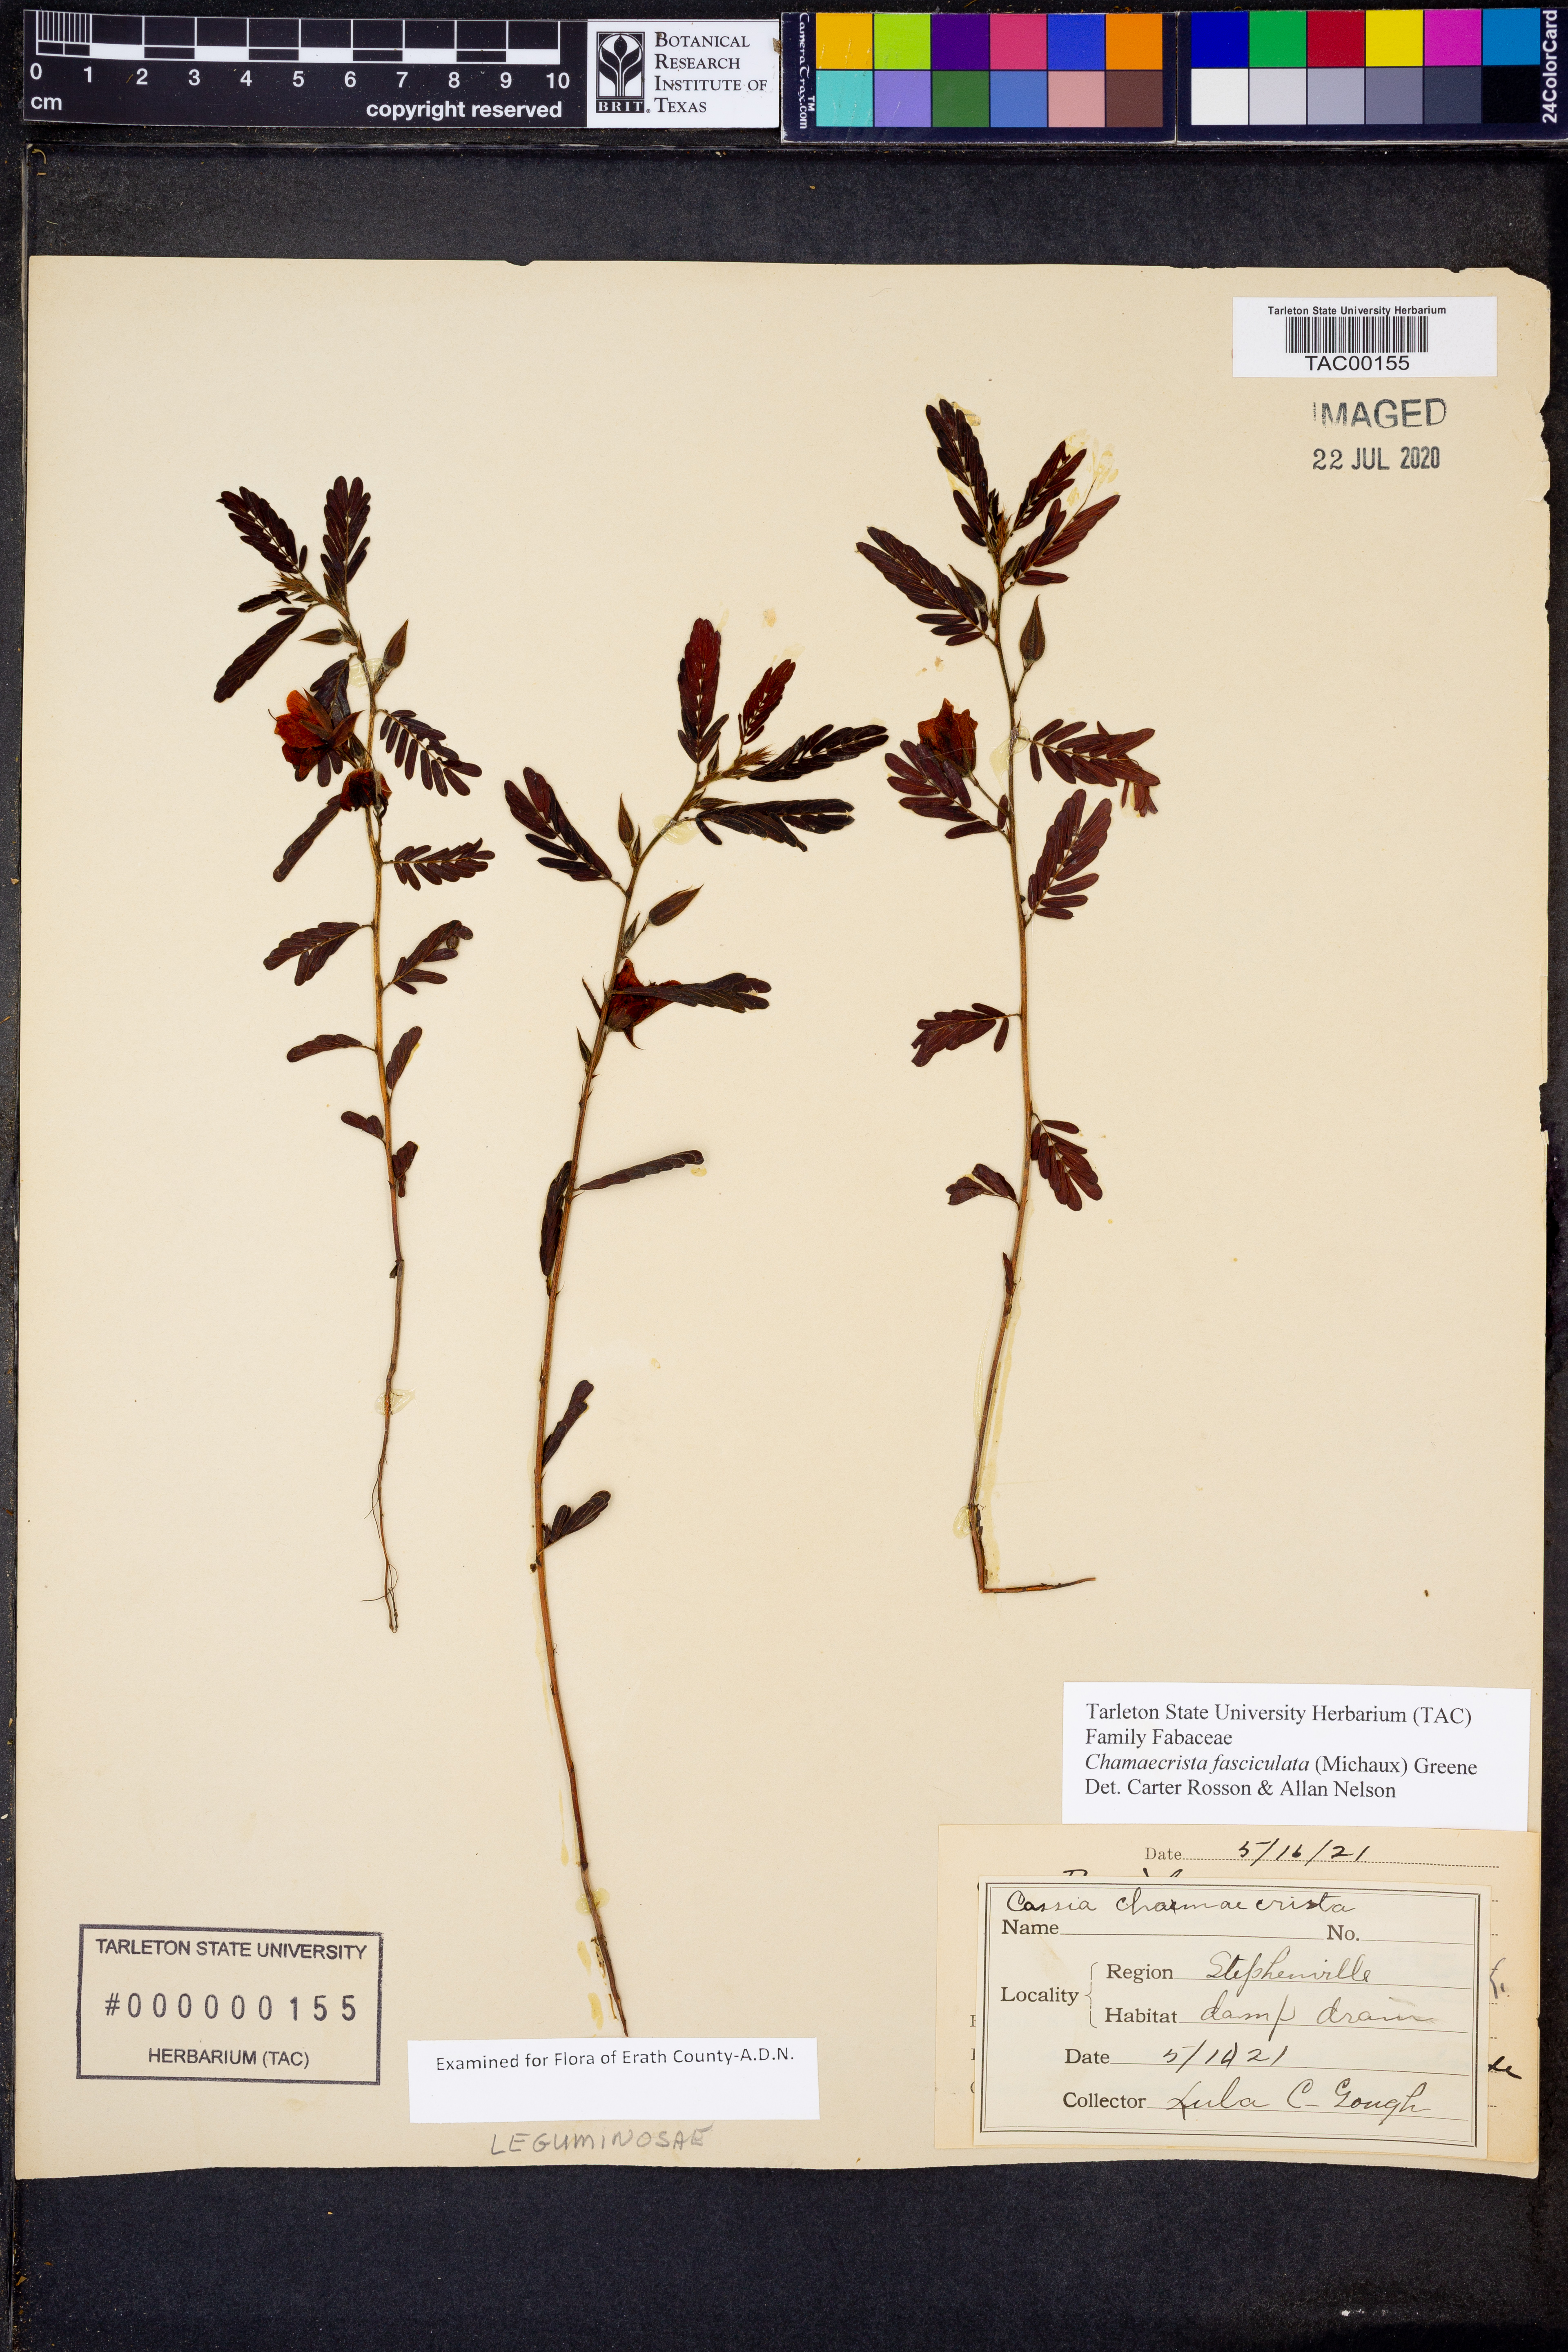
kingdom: Plantae
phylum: Tracheophyta
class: Magnoliopsida
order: Fabales
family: Fabaceae
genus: Chamaecrista
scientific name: Chamaecrista fasciculata
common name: Golden cassia
